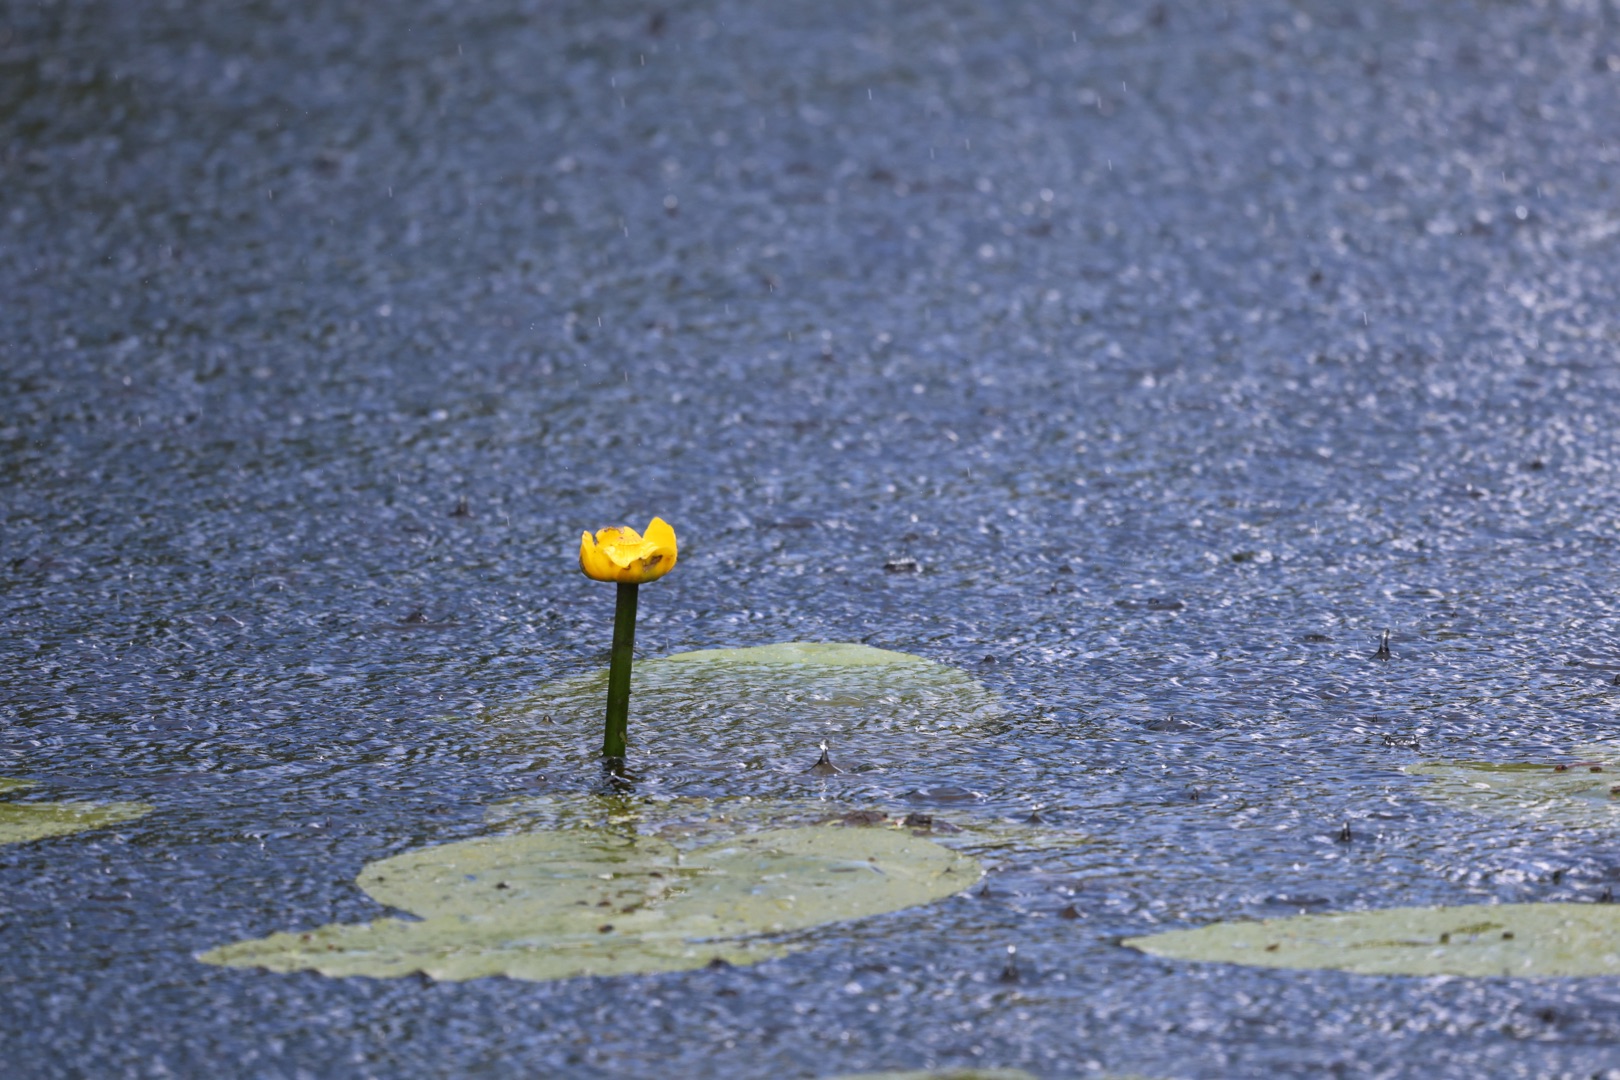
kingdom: Plantae
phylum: Tracheophyta
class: Magnoliopsida
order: Nymphaeales
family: Nymphaeaceae
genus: Nuphar
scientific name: Nuphar lutea
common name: Gul åkande
